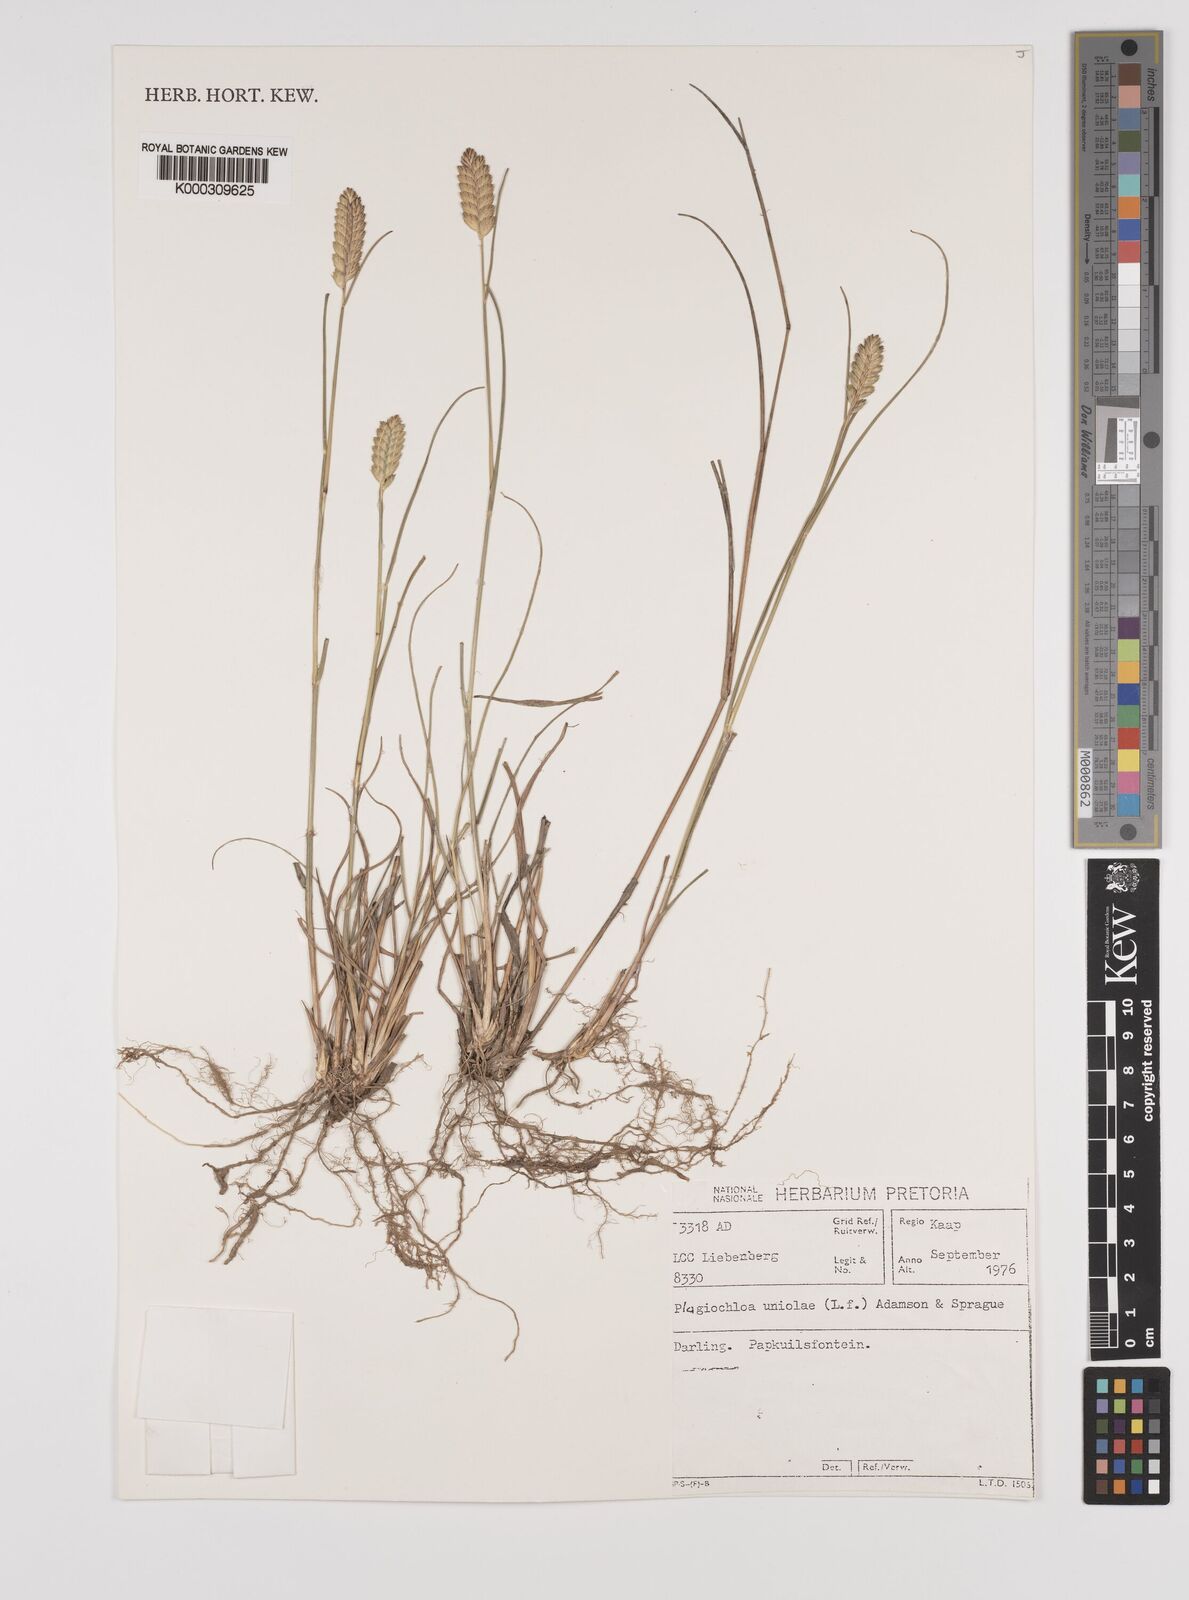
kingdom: Plantae
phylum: Tracheophyta
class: Liliopsida
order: Poales
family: Poaceae
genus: Tribolium
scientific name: Tribolium uniolae
